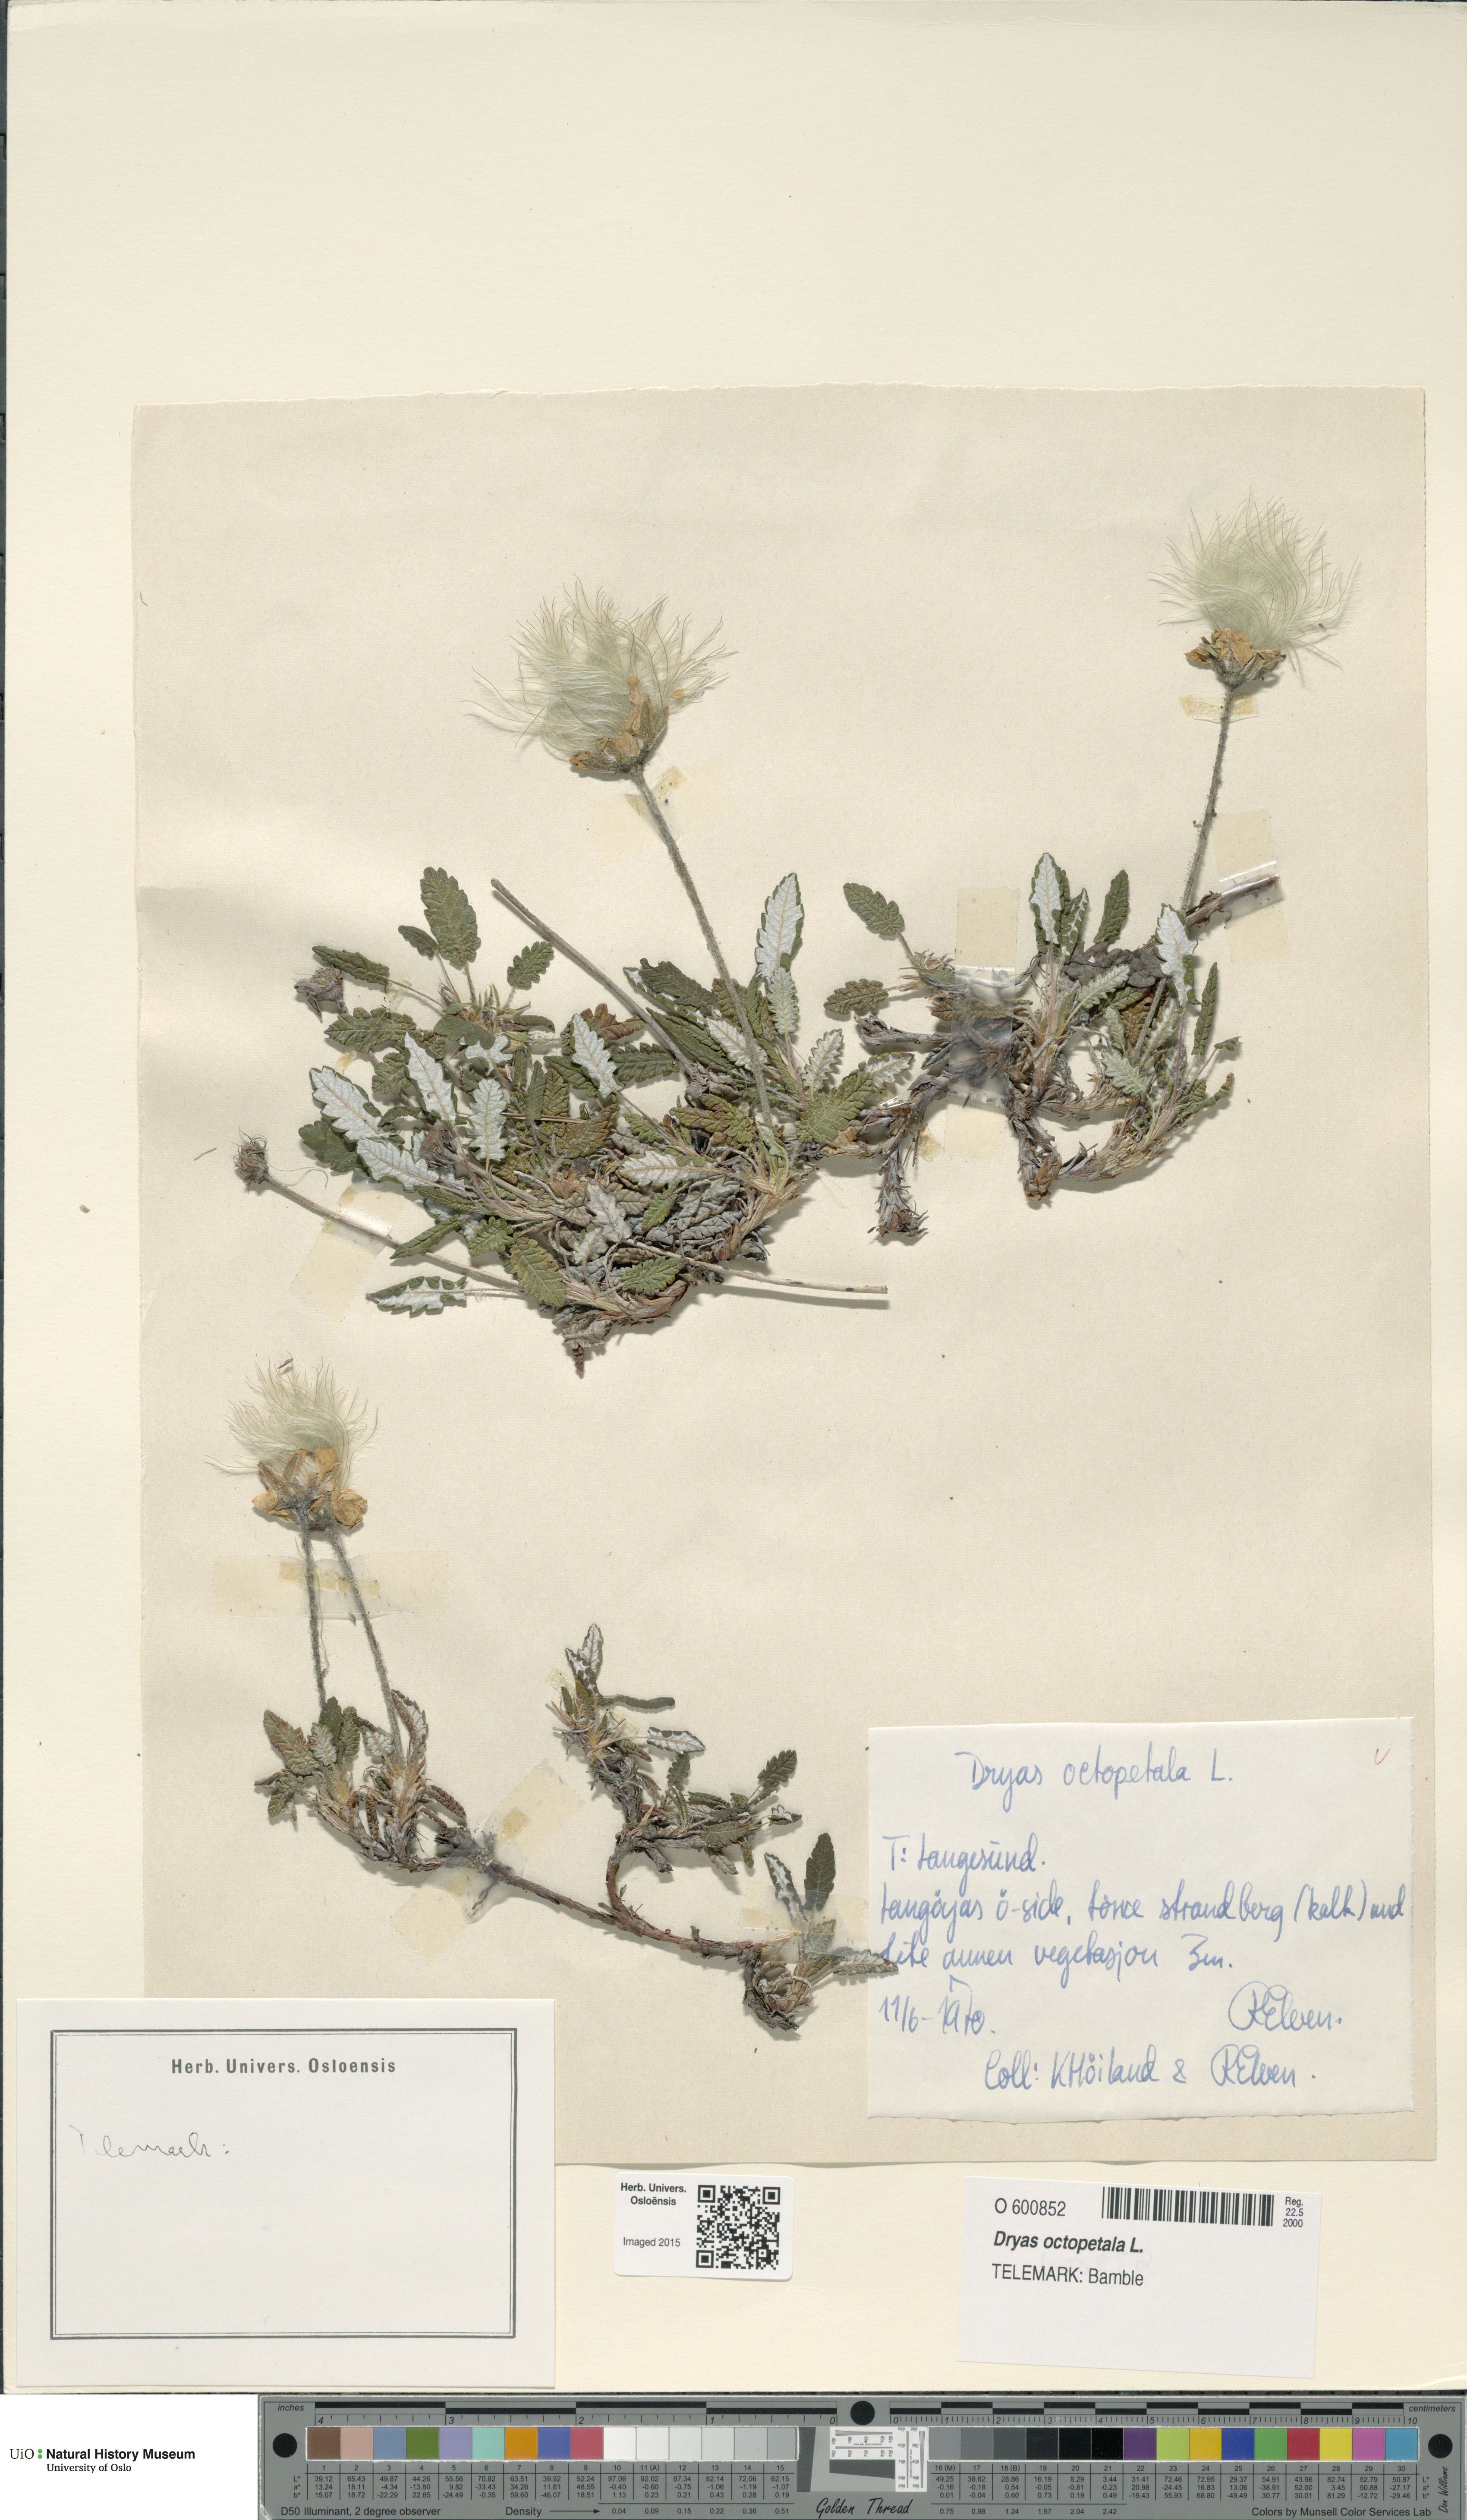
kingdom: Plantae
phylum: Tracheophyta
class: Magnoliopsida
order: Rosales
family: Rosaceae
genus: Dryas
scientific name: Dryas octopetala
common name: Eight-petal mountain-avens
